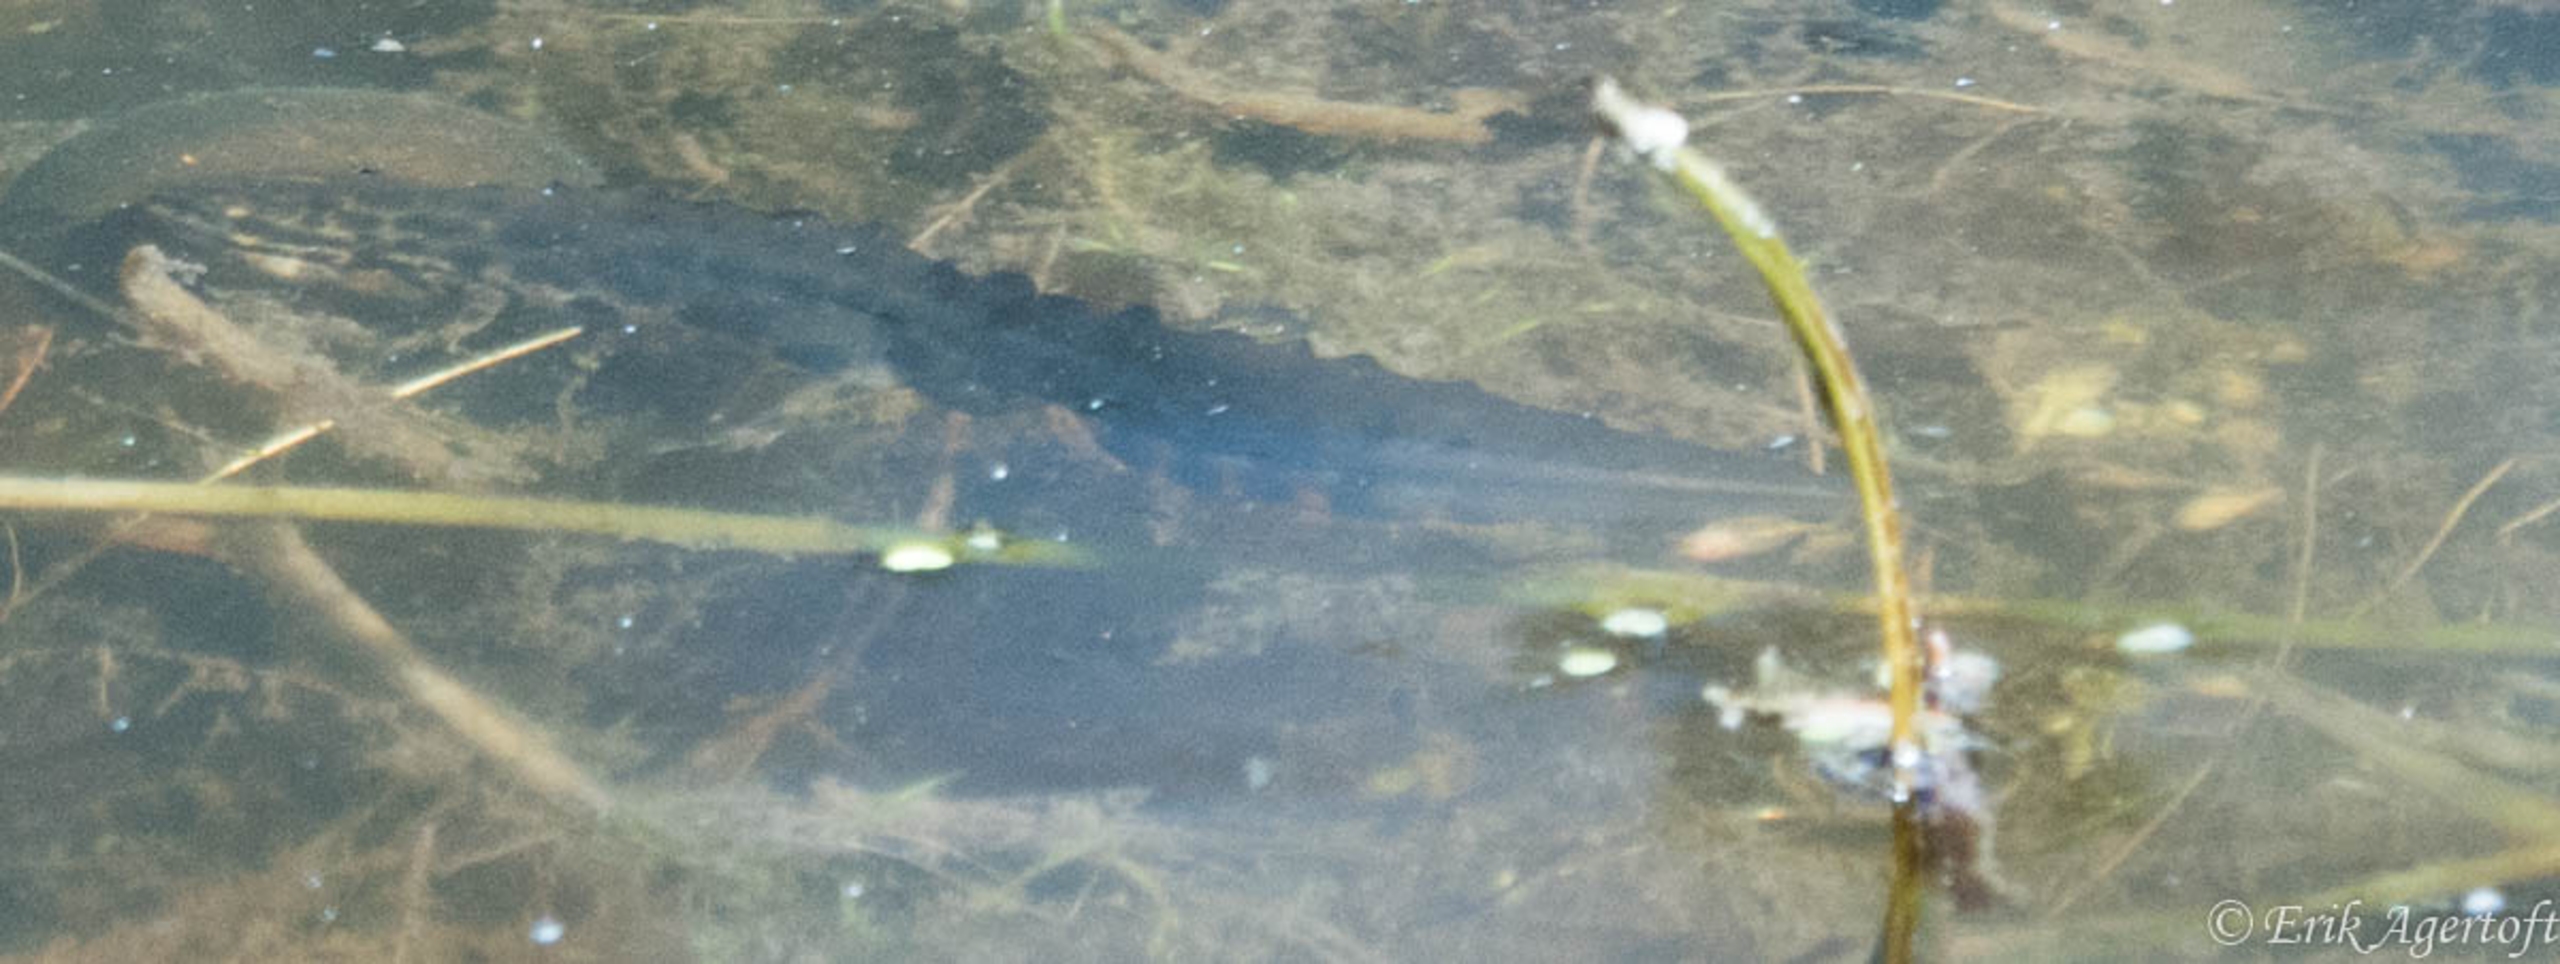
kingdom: Animalia
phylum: Chordata
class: Amphibia
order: Caudata
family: Salamandridae
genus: Lissotriton
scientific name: Lissotriton vulgaris
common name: Lille vandsalamander
